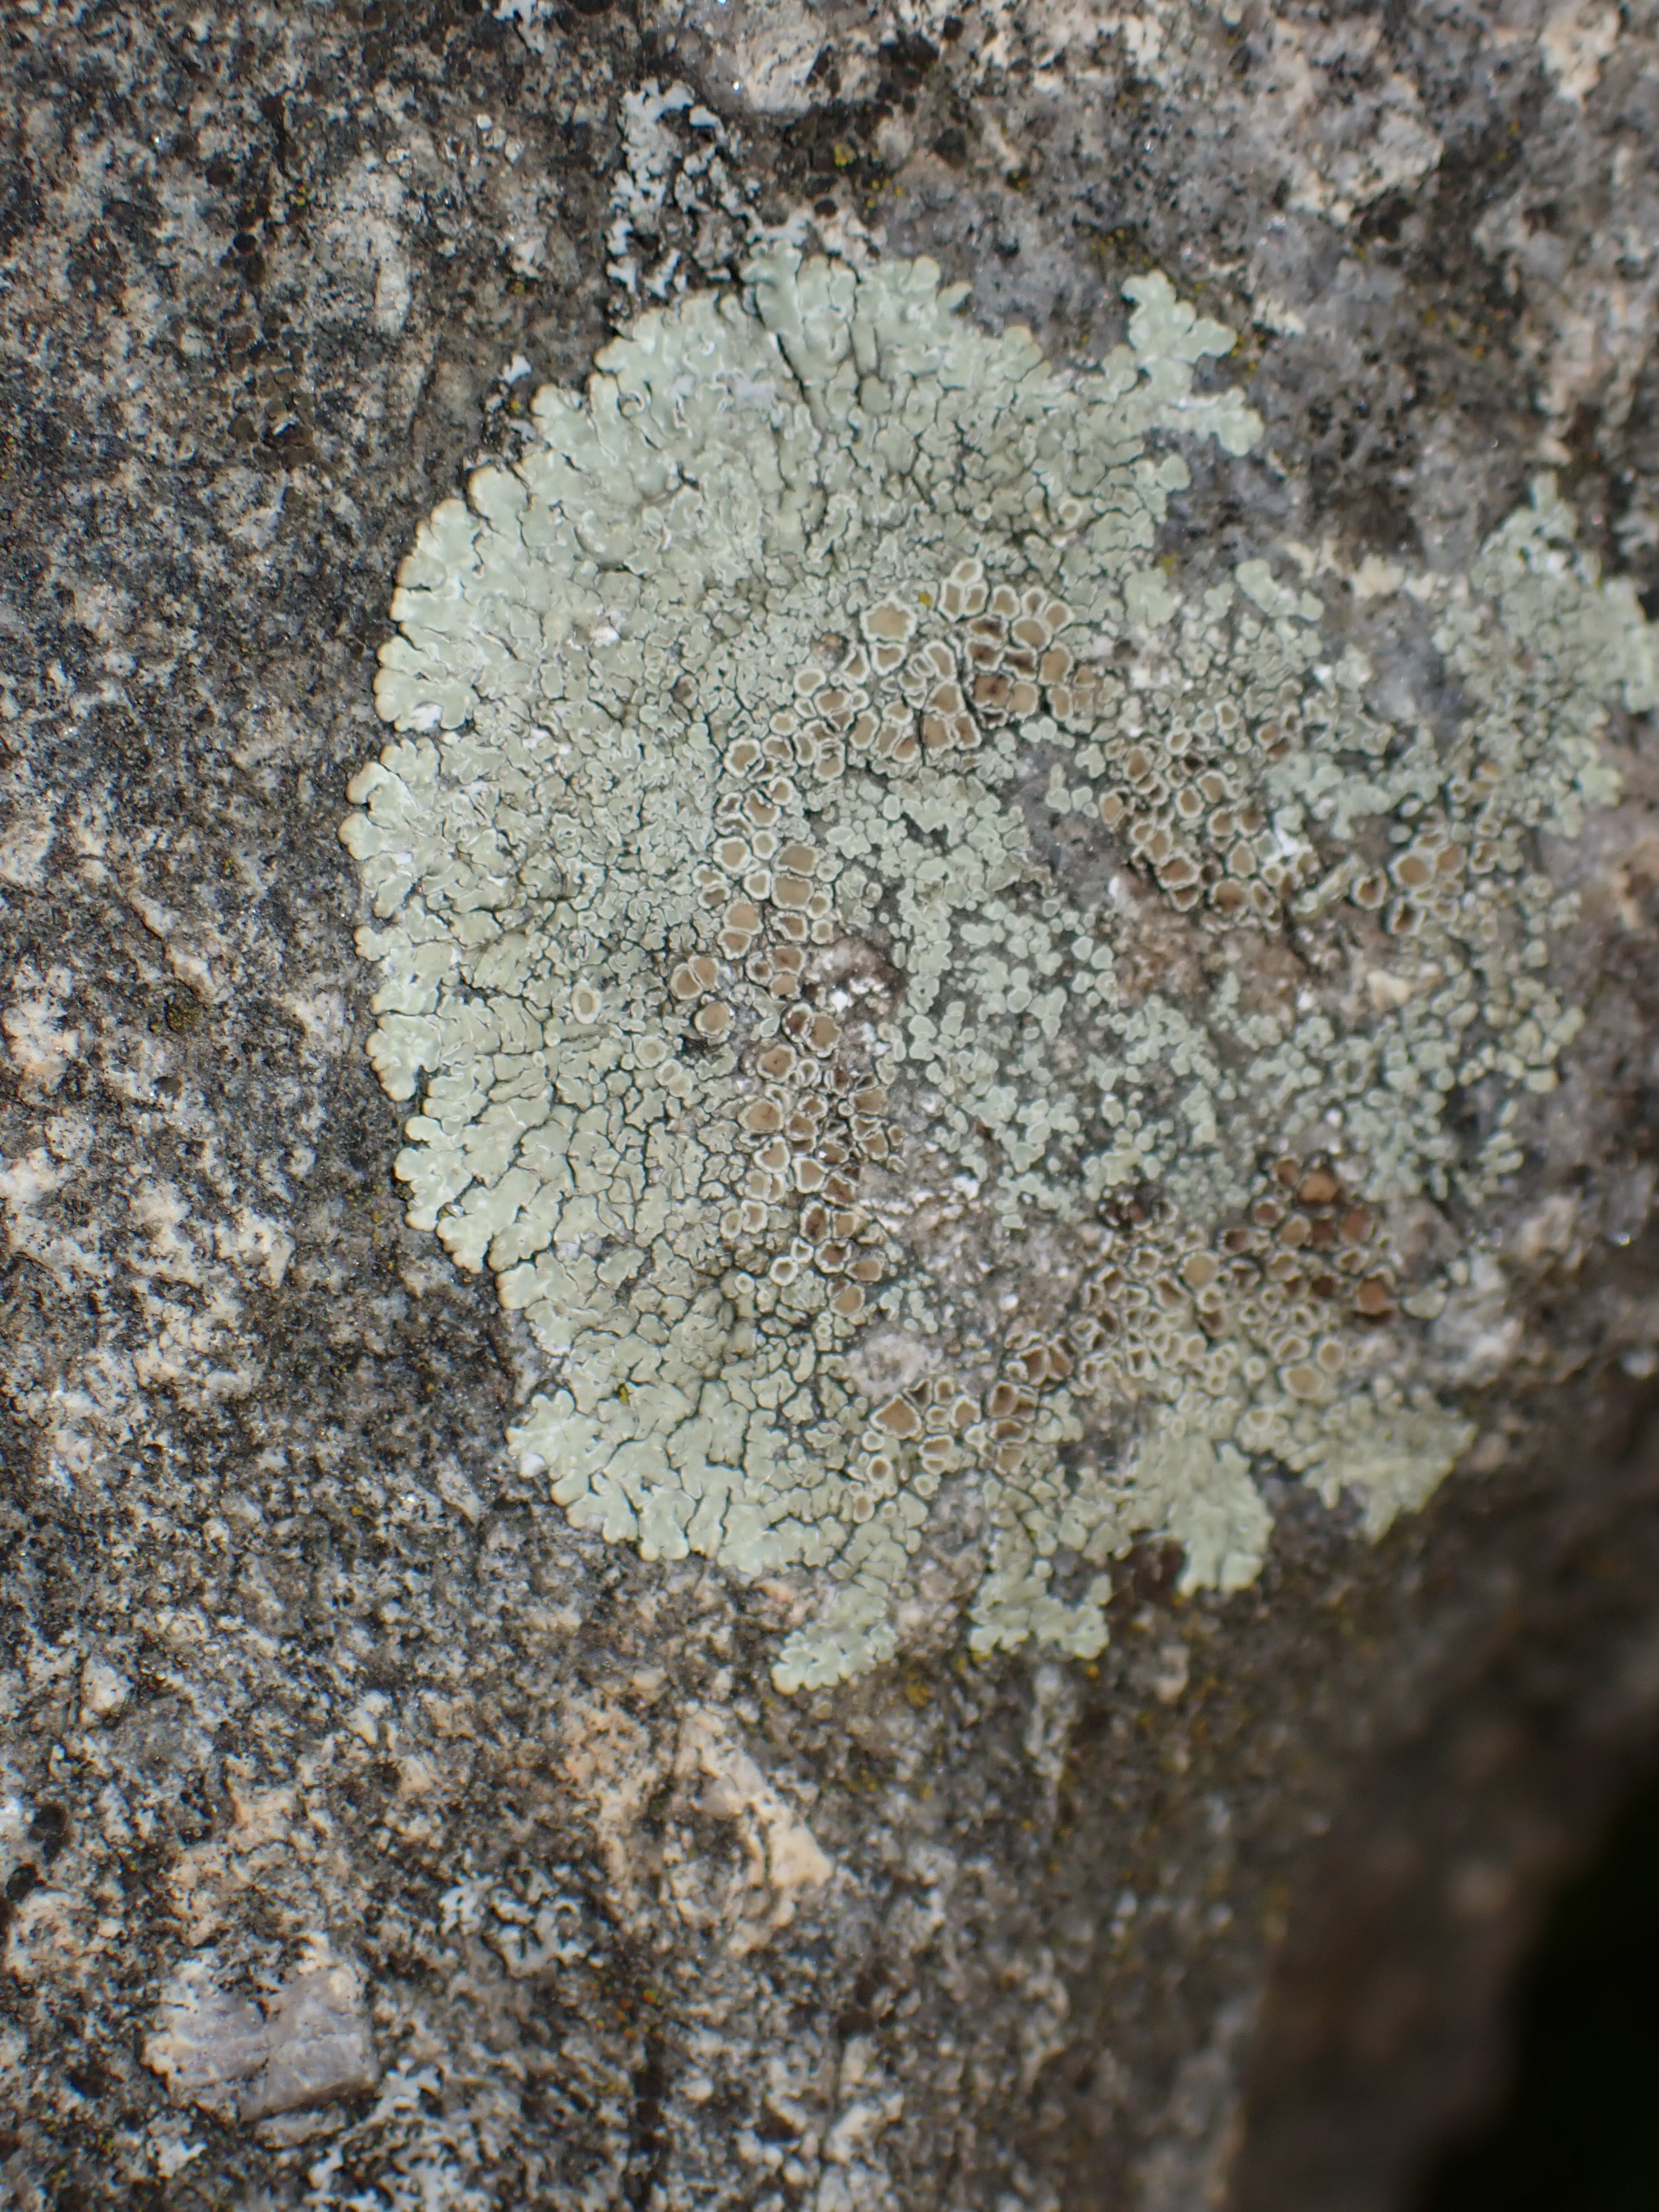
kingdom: Fungi
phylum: Ascomycota
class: Lecanoromycetes
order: Lecanorales
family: Lecanoraceae
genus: Protoparmeliopsis
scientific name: Protoparmeliopsis muralis
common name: Randfliget kantskivelav
